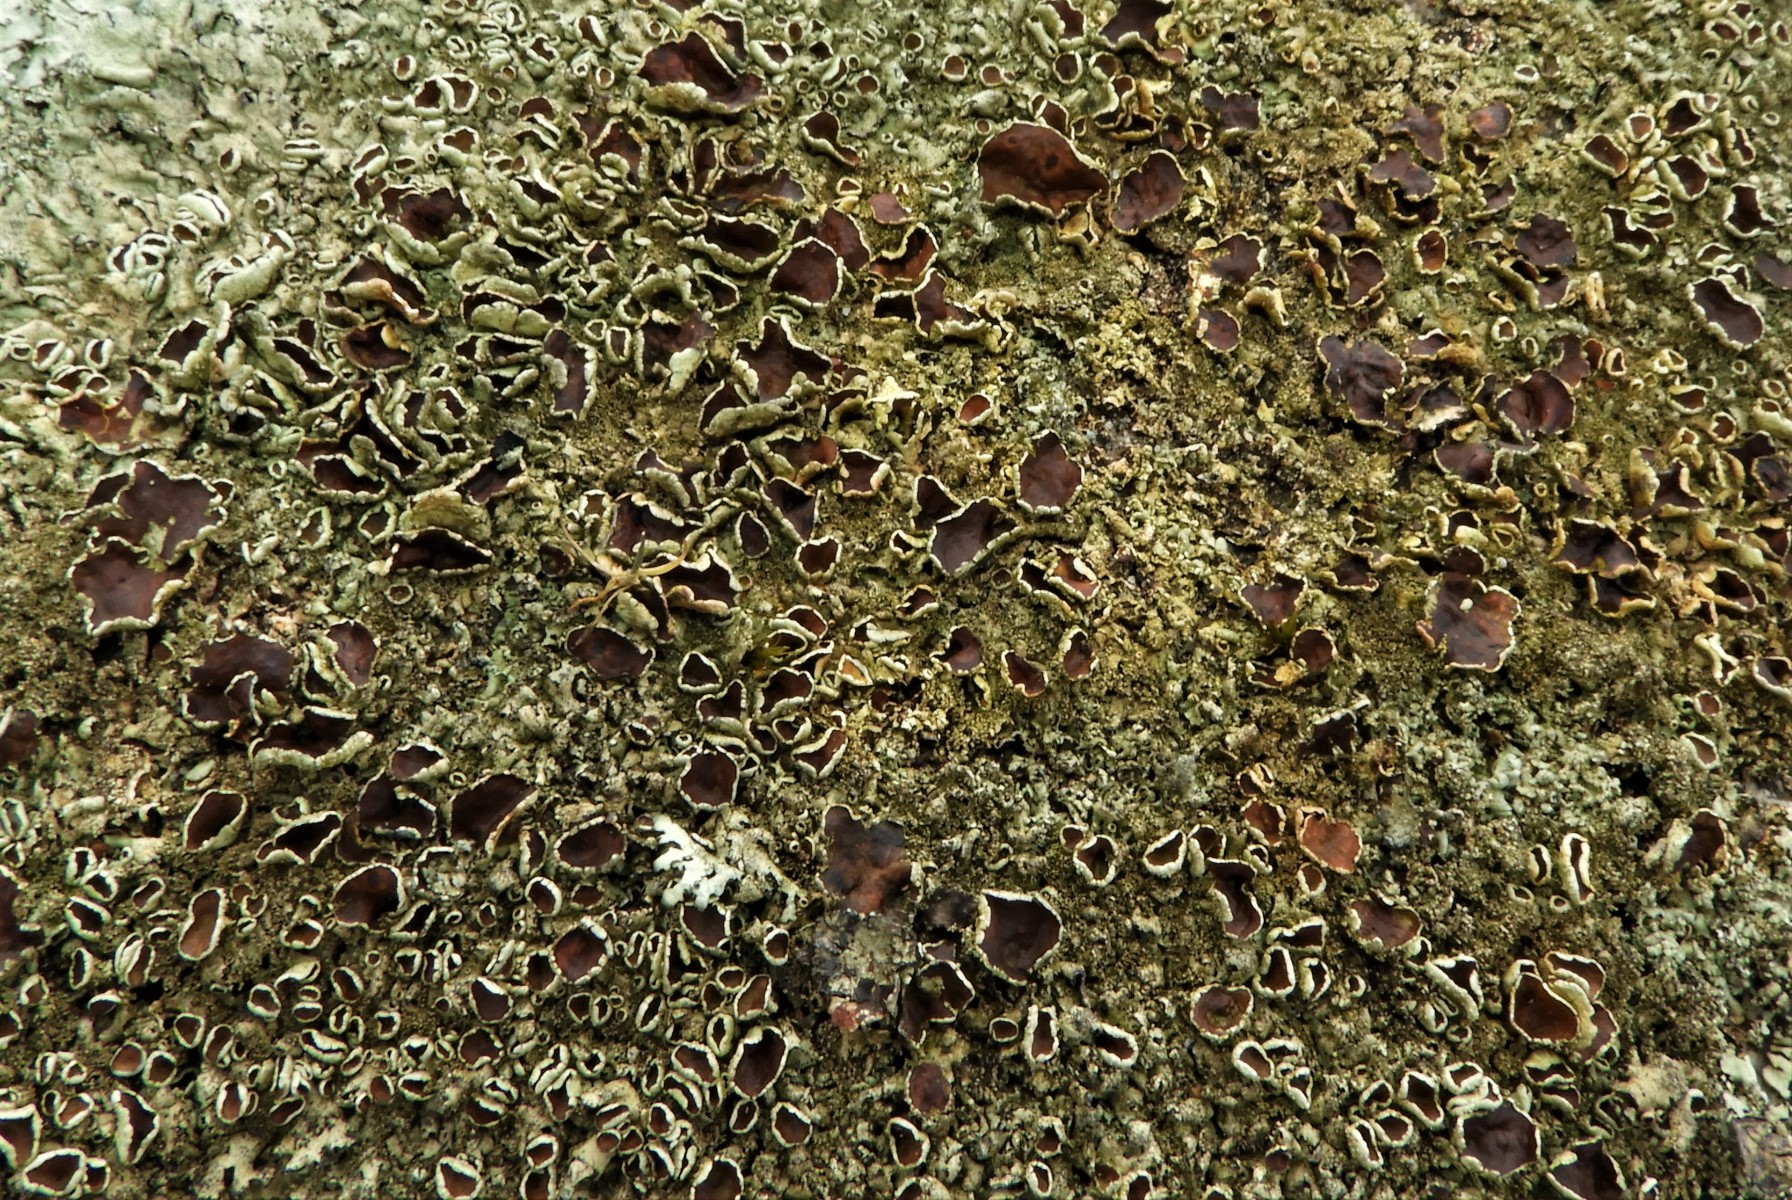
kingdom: Fungi
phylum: Ascomycota
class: Lecanoromycetes
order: Lecanorales
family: Parmeliaceae
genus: Xanthoparmelia
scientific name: Xanthoparmelia conspersa
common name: messing-skållav
